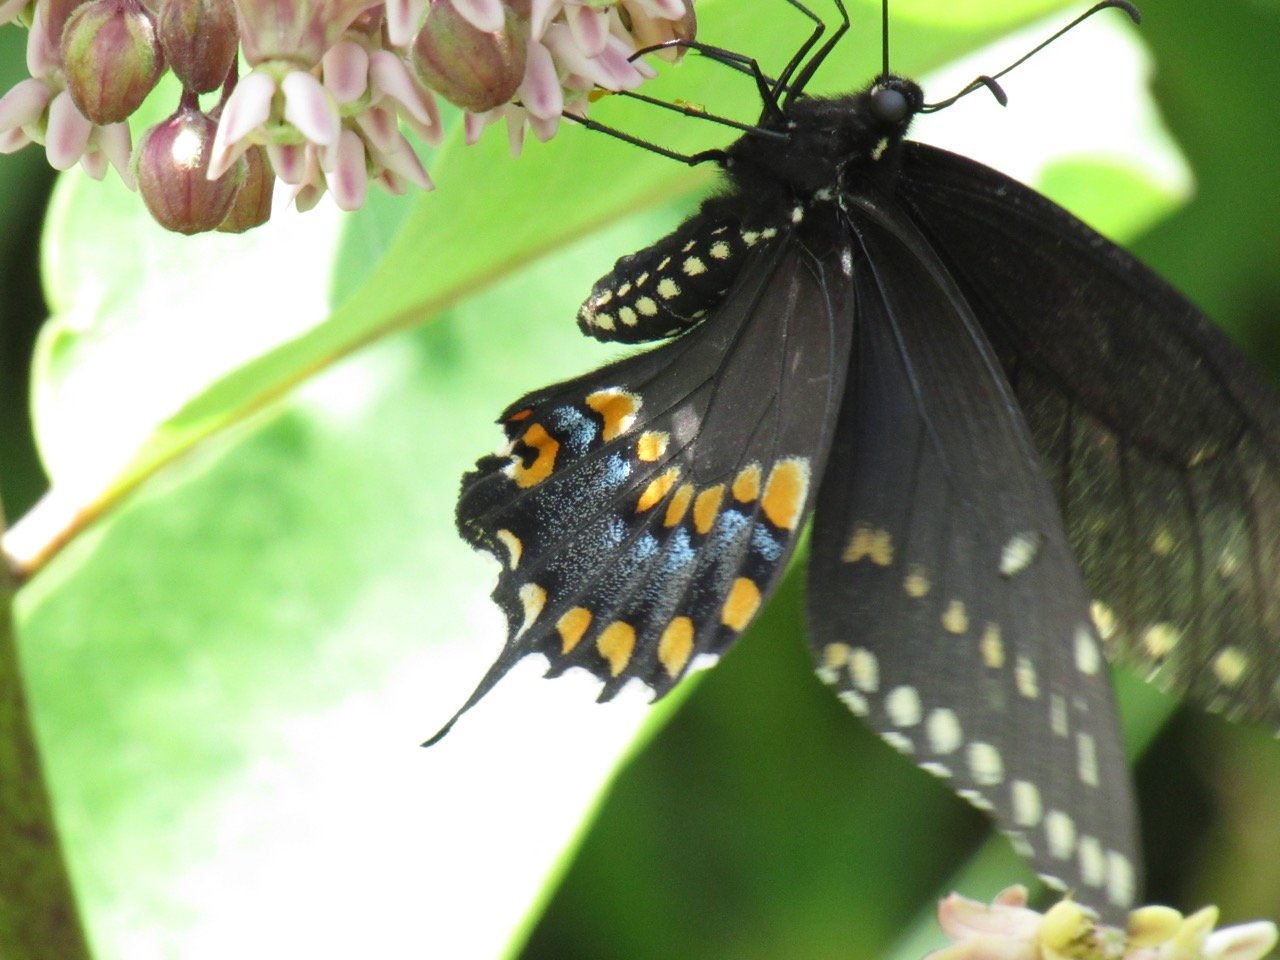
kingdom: Animalia
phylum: Arthropoda
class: Insecta
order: Lepidoptera
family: Papilionidae
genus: Papilio
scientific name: Papilio polyxenes
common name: Black Swallowtail
